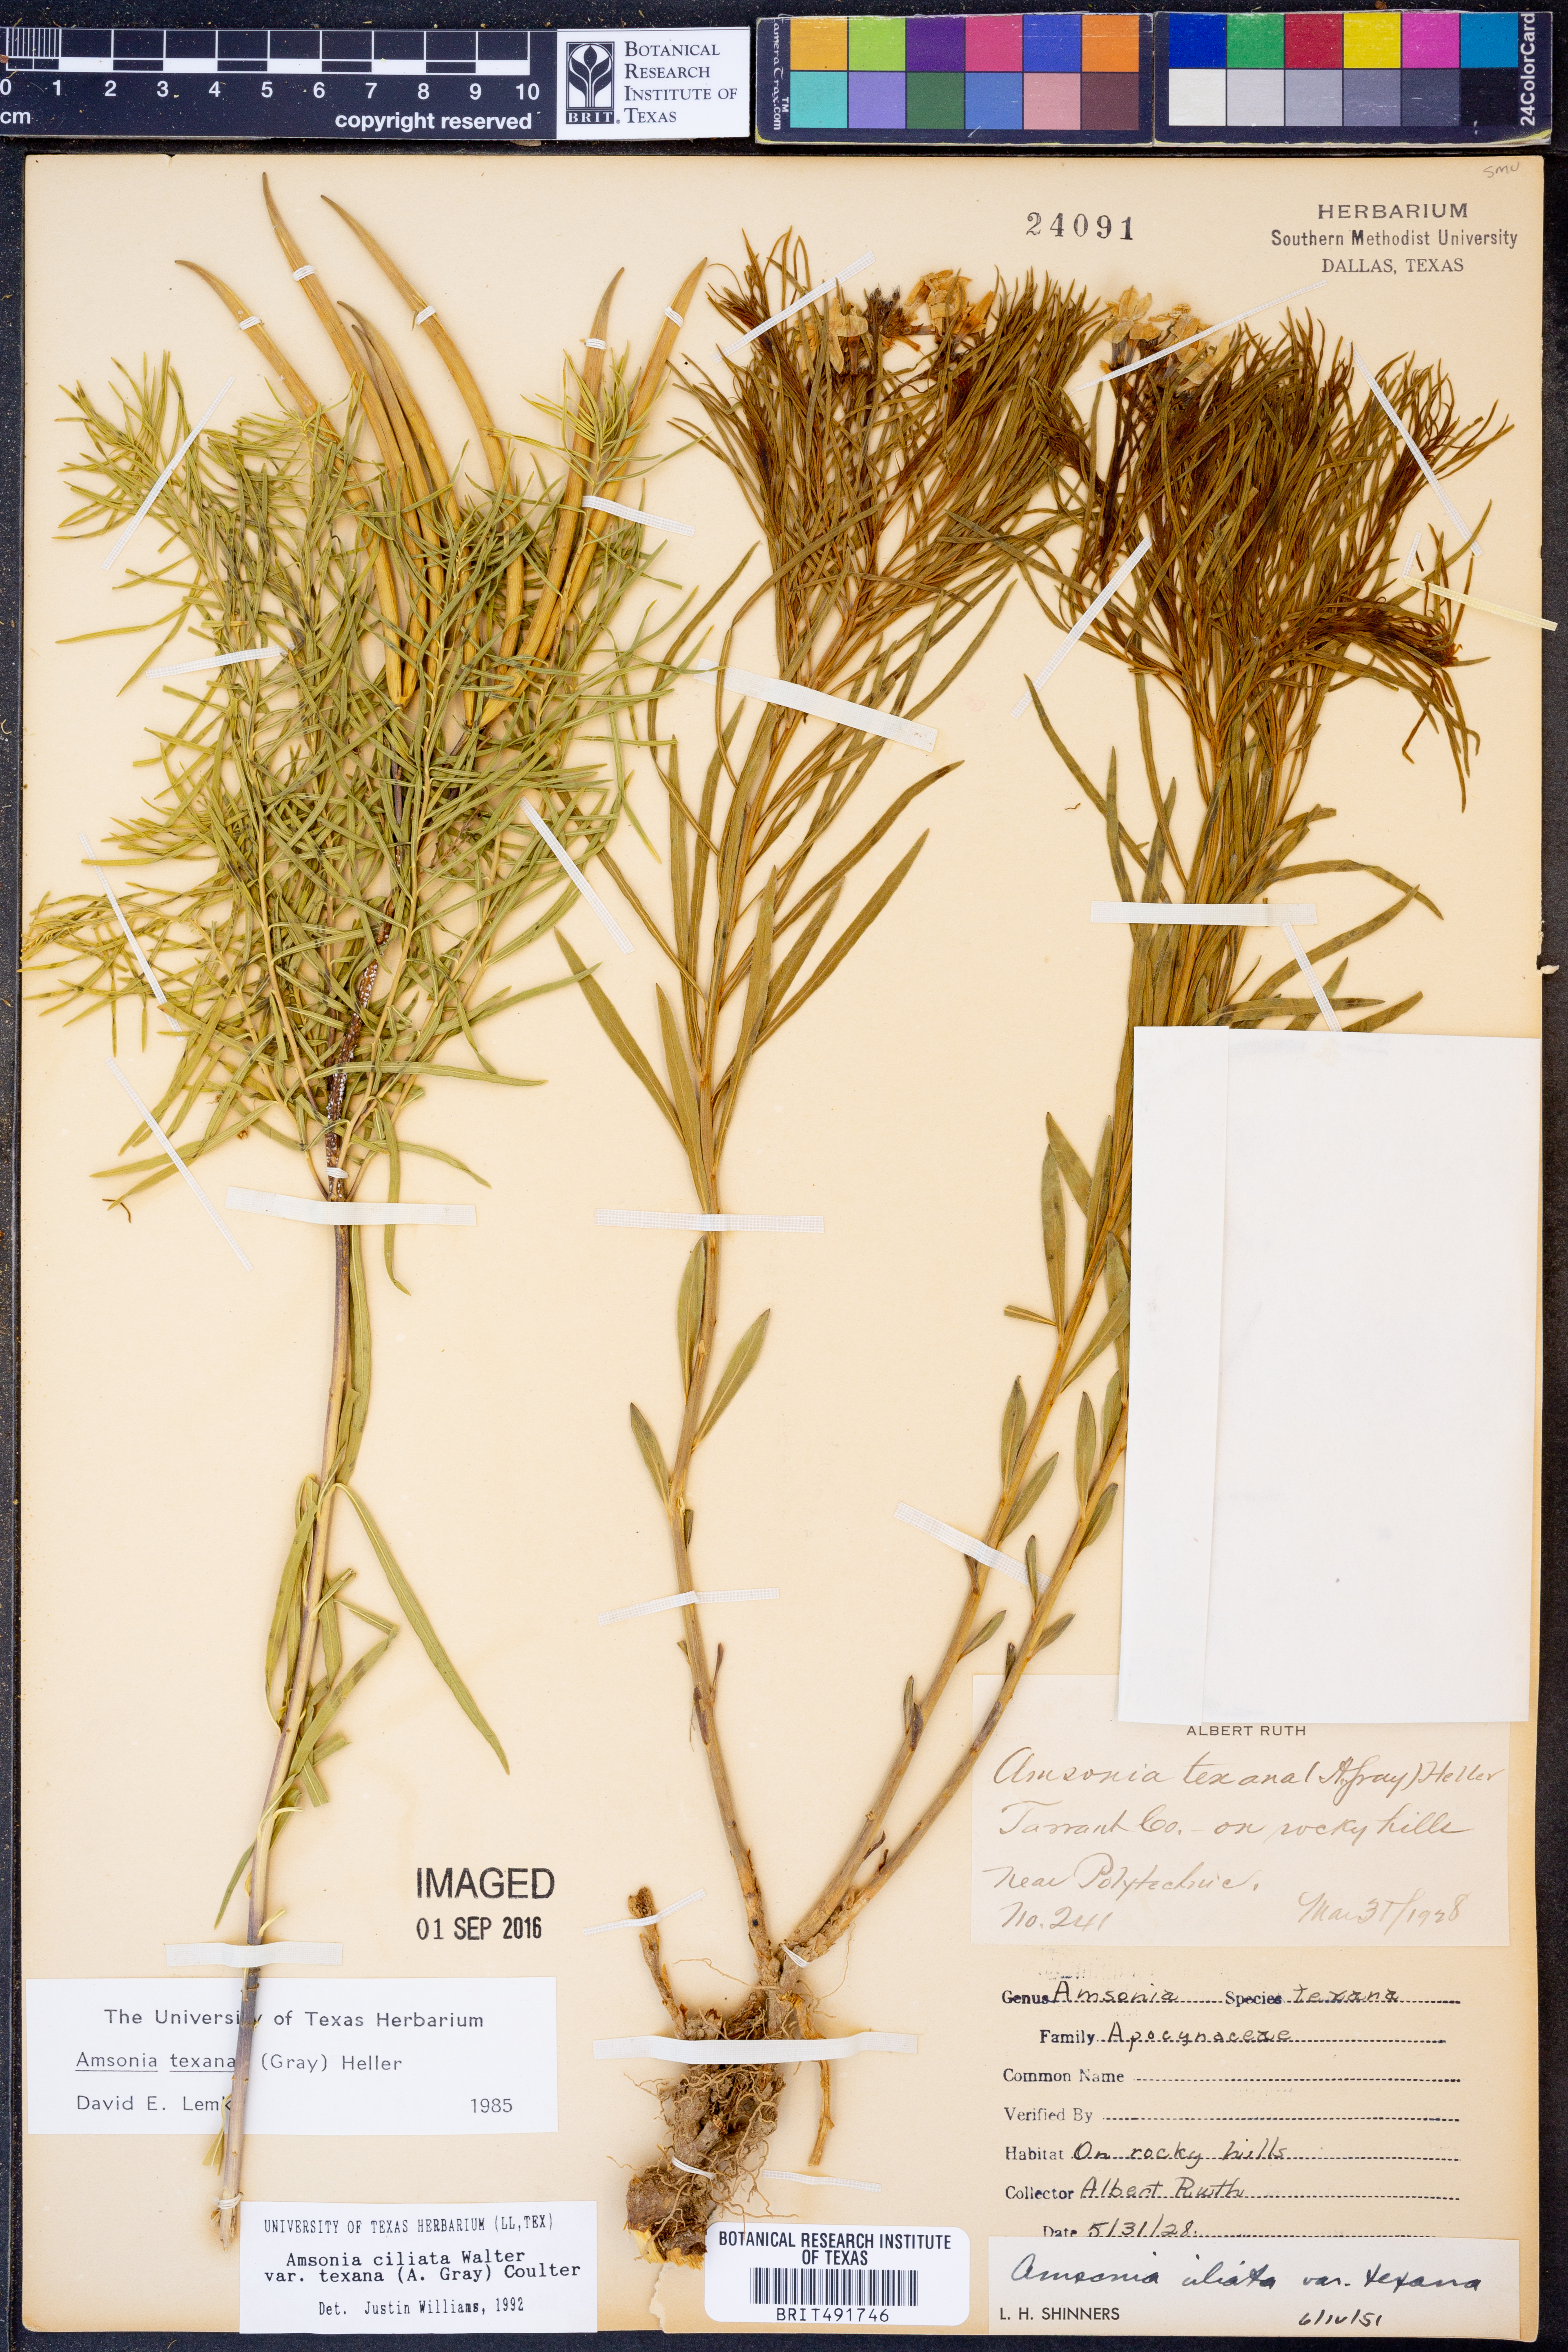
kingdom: Plantae
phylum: Tracheophyta
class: Magnoliopsida
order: Gentianales
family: Apocynaceae
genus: Amsonia
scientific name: Amsonia ciliata
